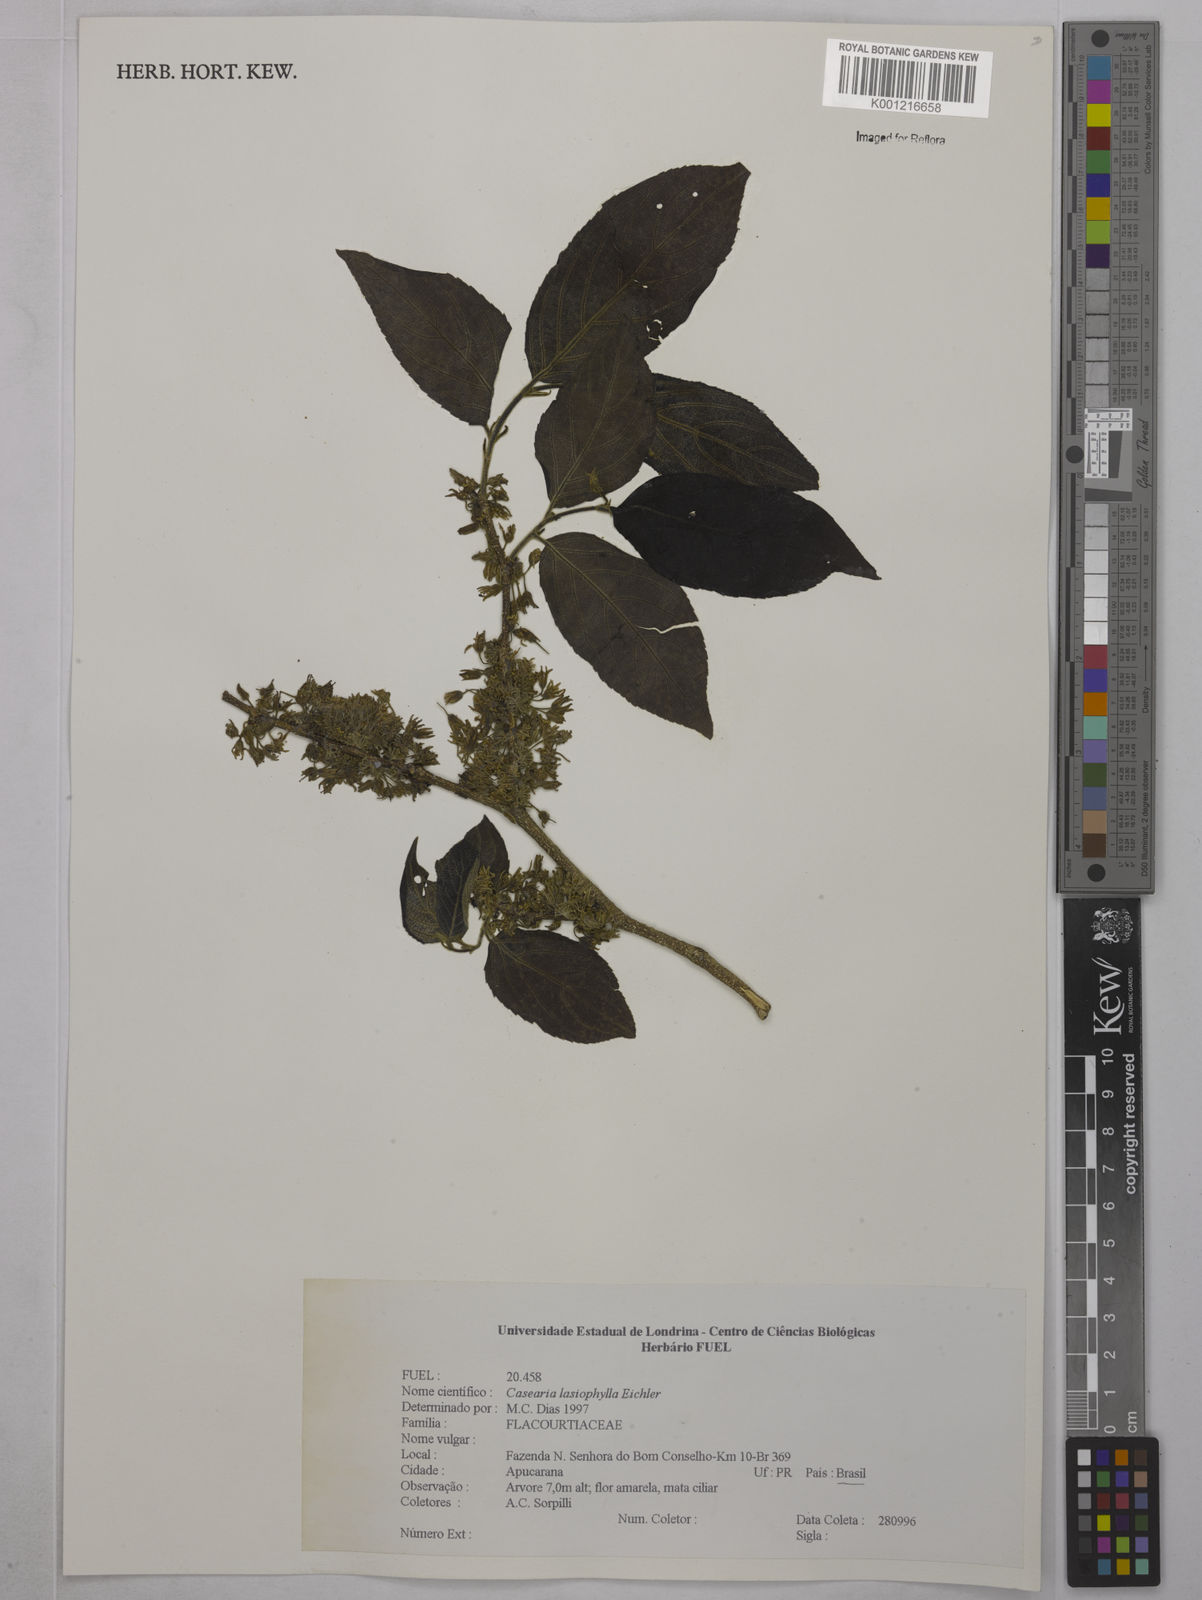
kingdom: Plantae
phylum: Tracheophyta
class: Magnoliopsida
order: Malpighiales
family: Salicaceae
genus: Casearia
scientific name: Casearia lasiophylla
